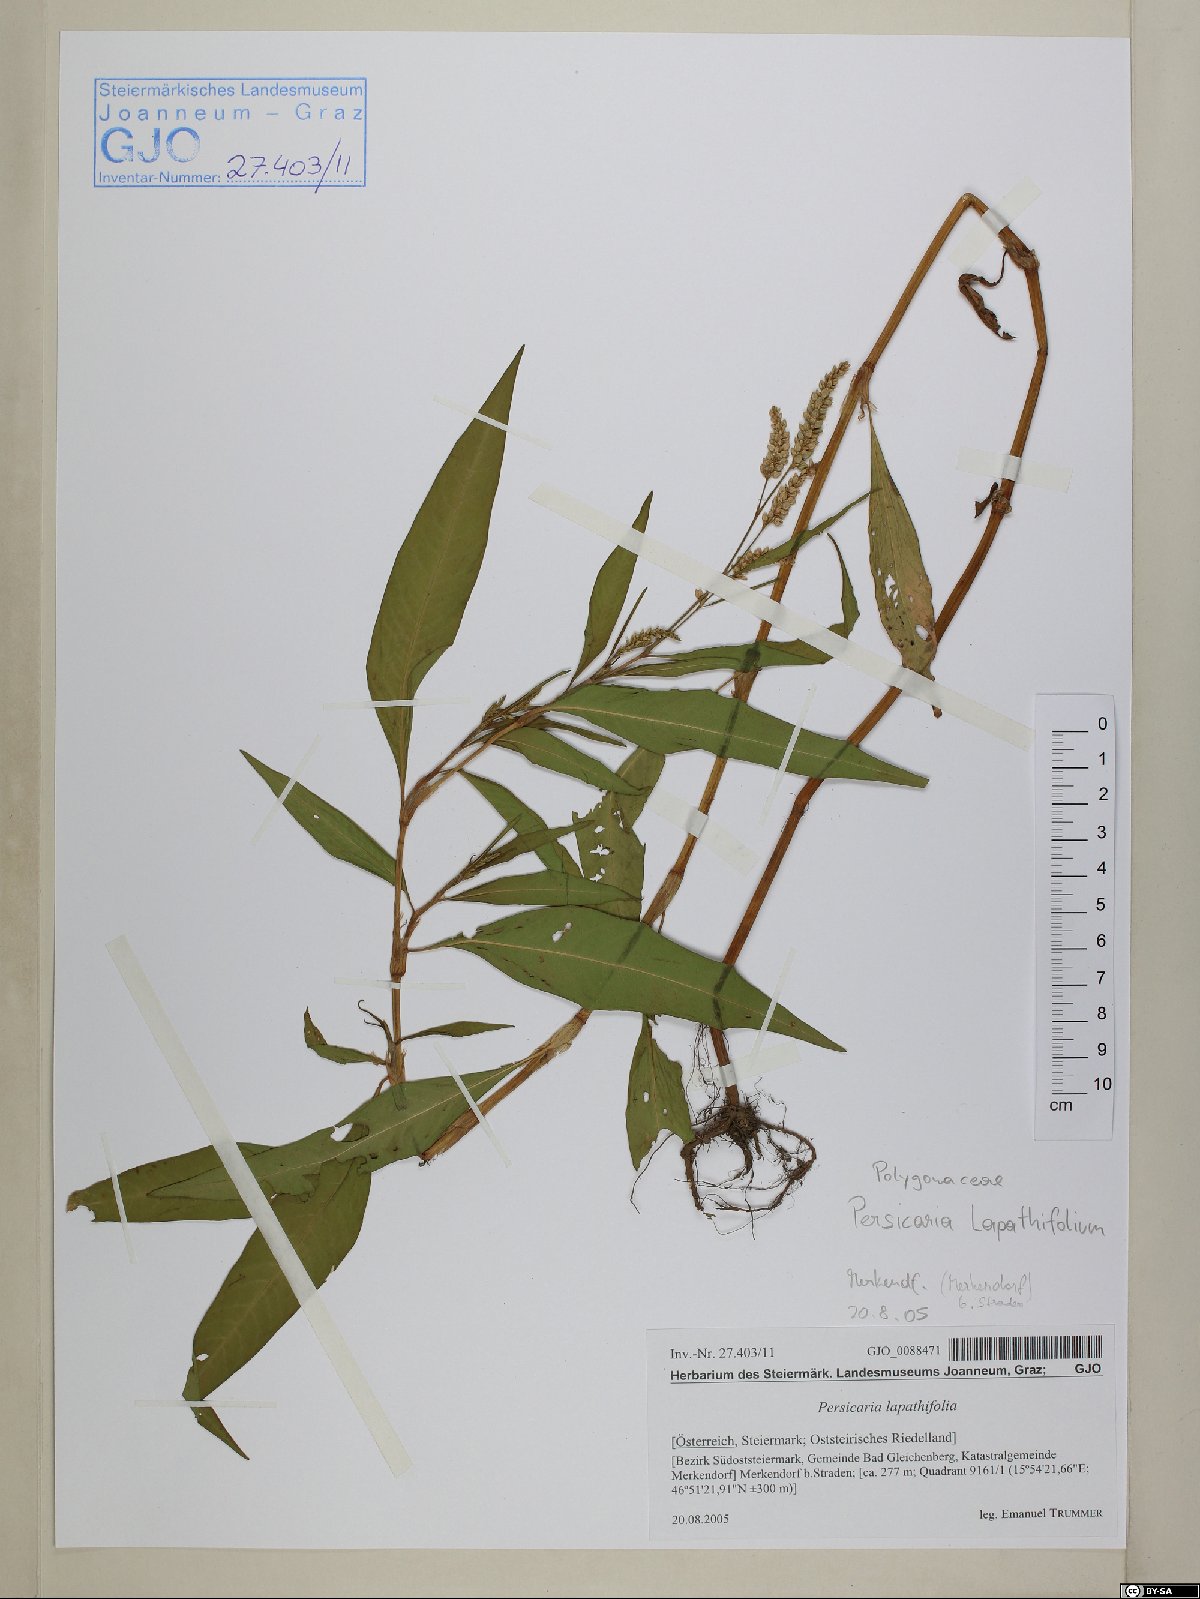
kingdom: Plantae
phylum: Tracheophyta
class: Magnoliopsida
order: Caryophyllales
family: Polygonaceae
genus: Persicaria
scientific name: Persicaria lapathifolia
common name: Curlytop knotweed
